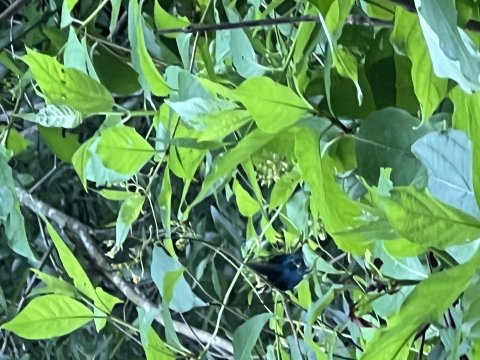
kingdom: Animalia
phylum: Arthropoda
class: Insecta
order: Lepidoptera
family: Papilionidae
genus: Battus
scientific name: Battus philenor
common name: Pipevine Swallowtail
